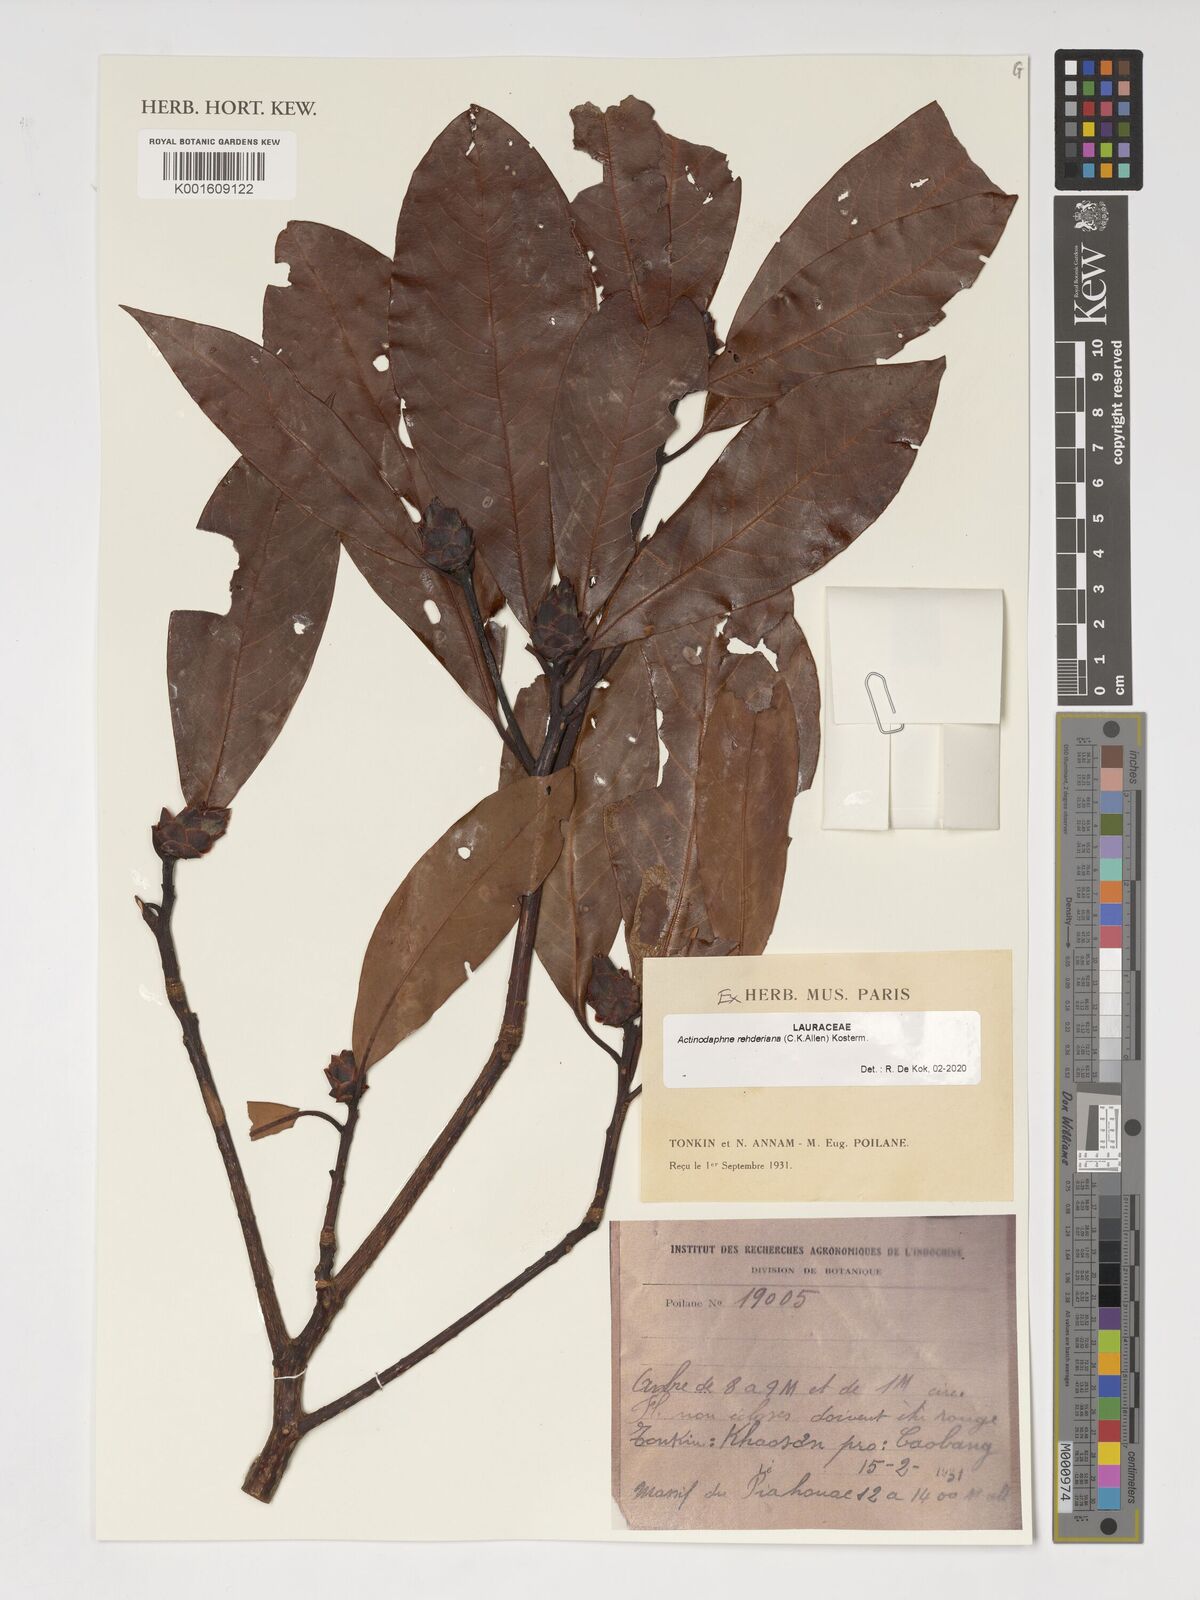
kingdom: Plantae
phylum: Tracheophyta
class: Magnoliopsida
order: Laurales
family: Lauraceae
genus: Actinodaphne
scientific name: Actinodaphne
